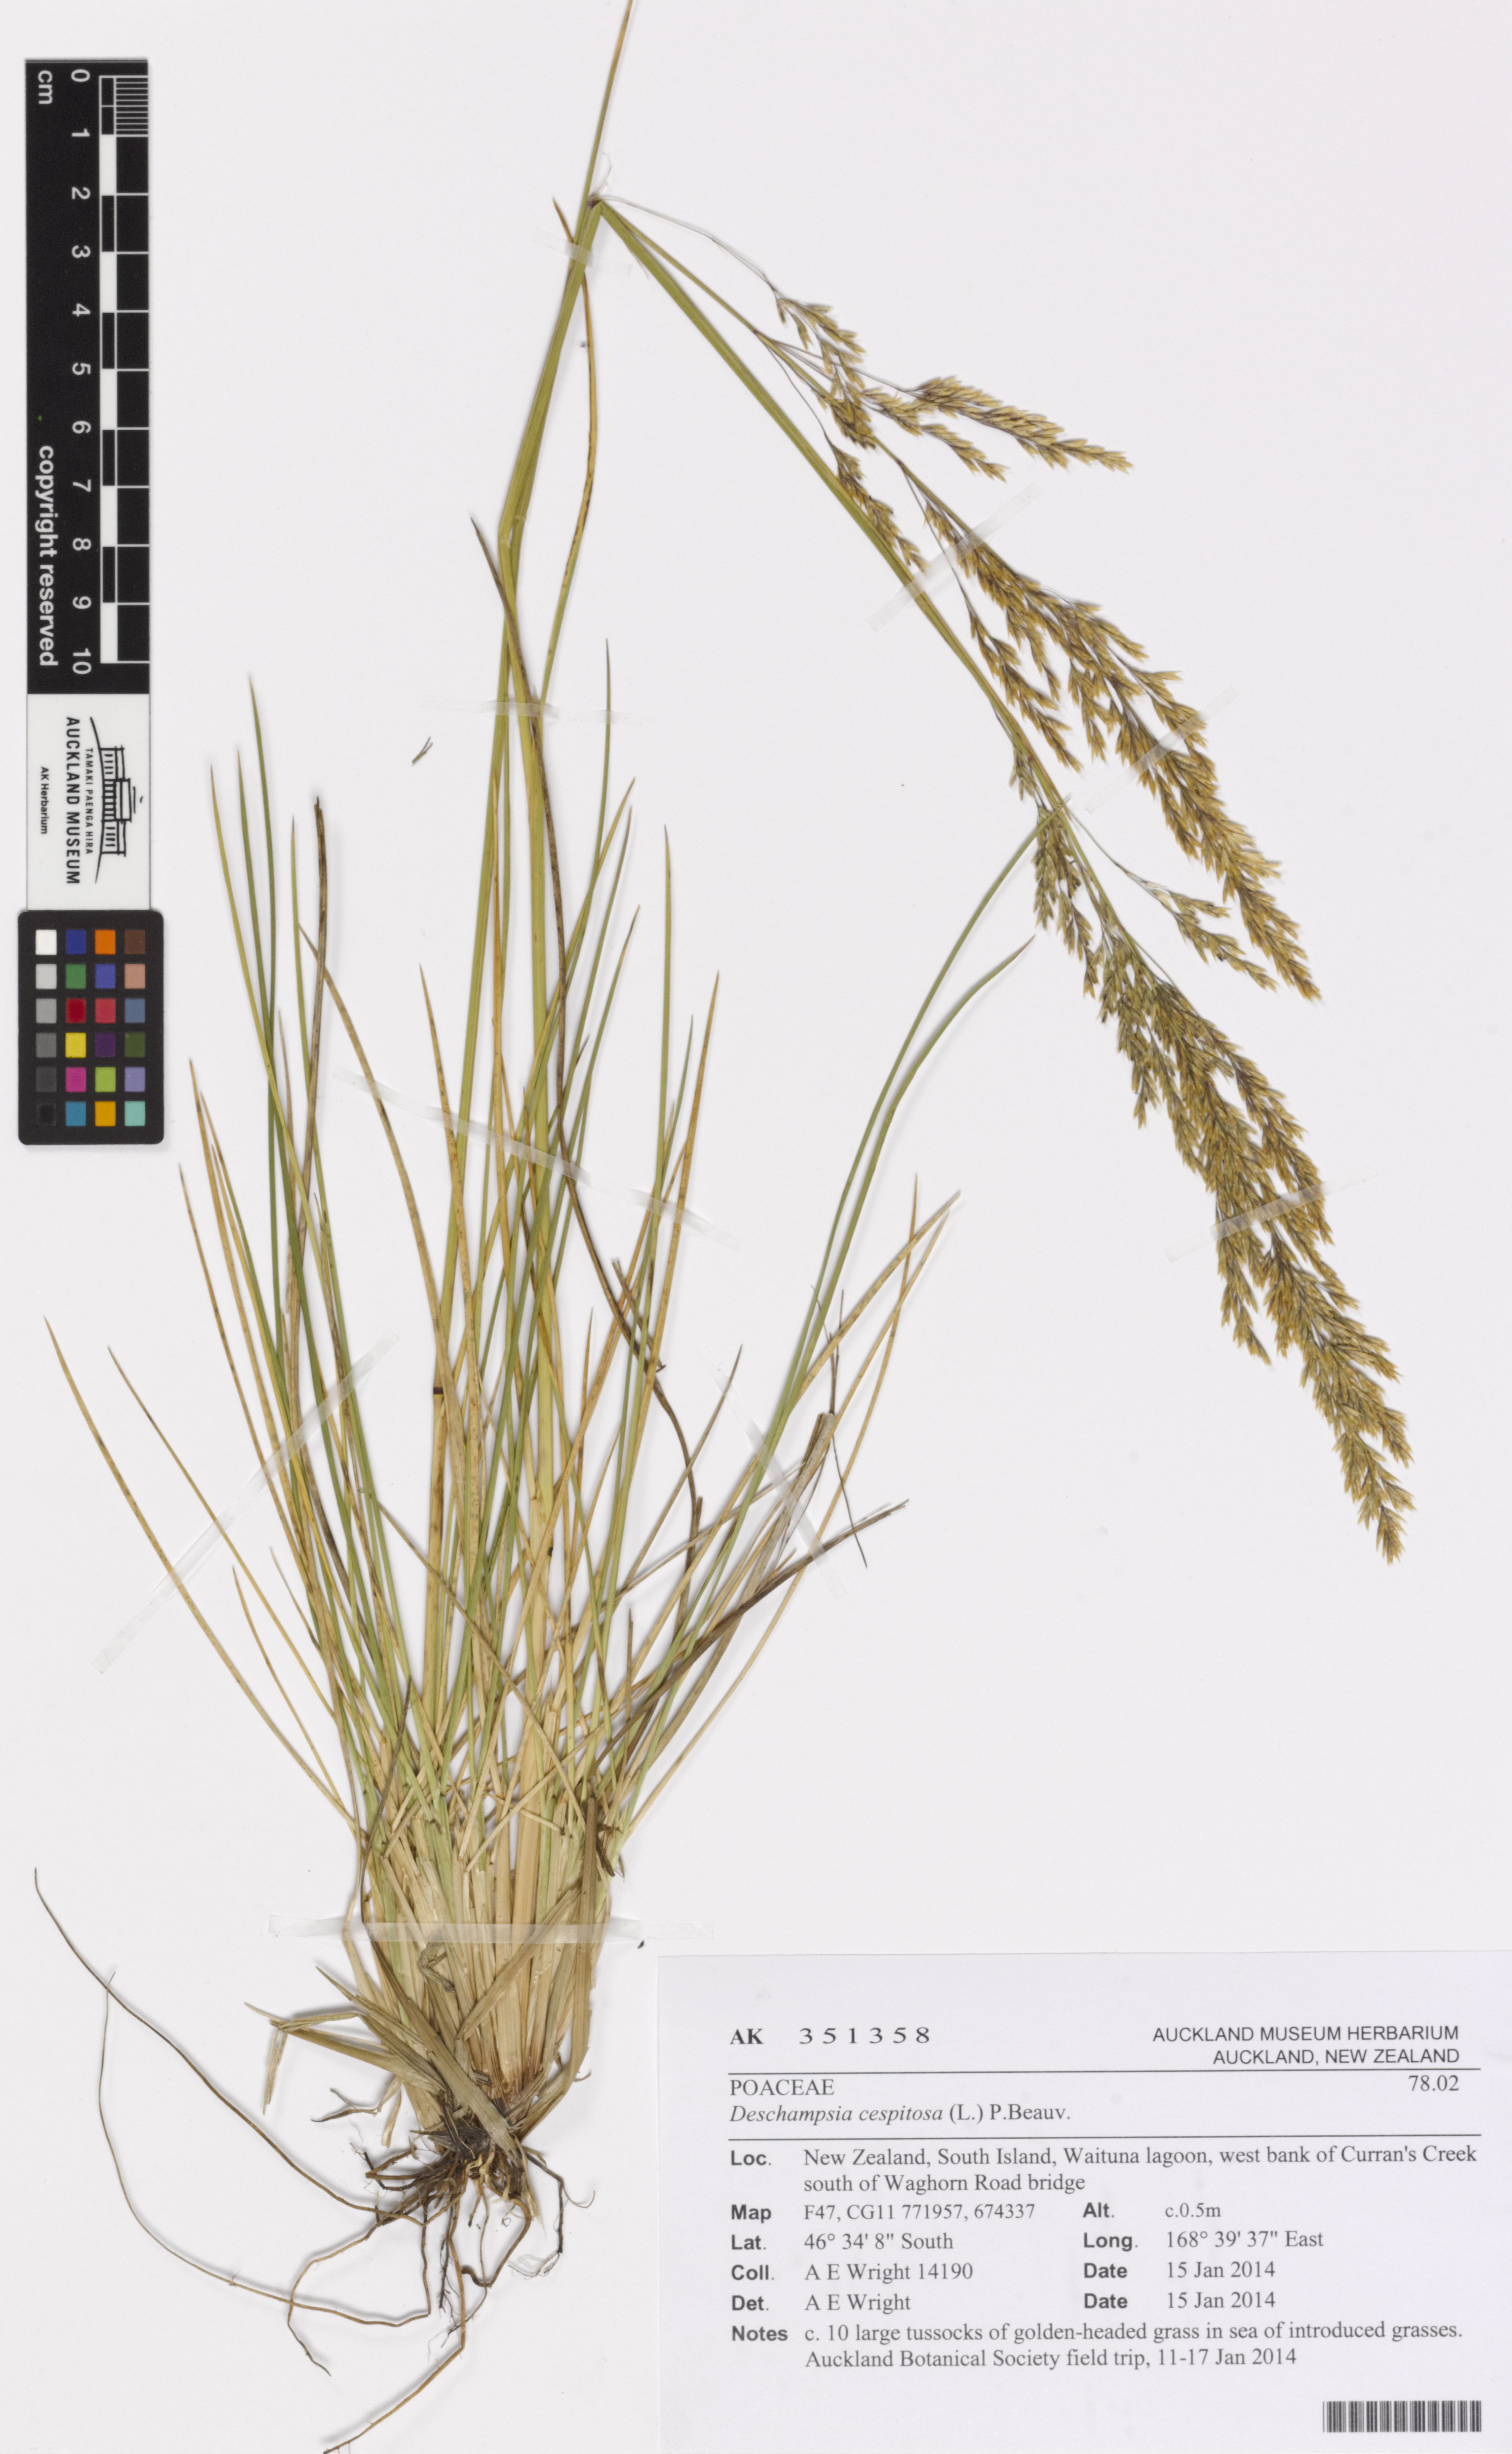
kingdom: Plantae
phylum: Tracheophyta
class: Liliopsida
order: Poales
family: Poaceae
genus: Deschampsia
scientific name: Deschampsia cespitosa
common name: Tufted hair-grass
